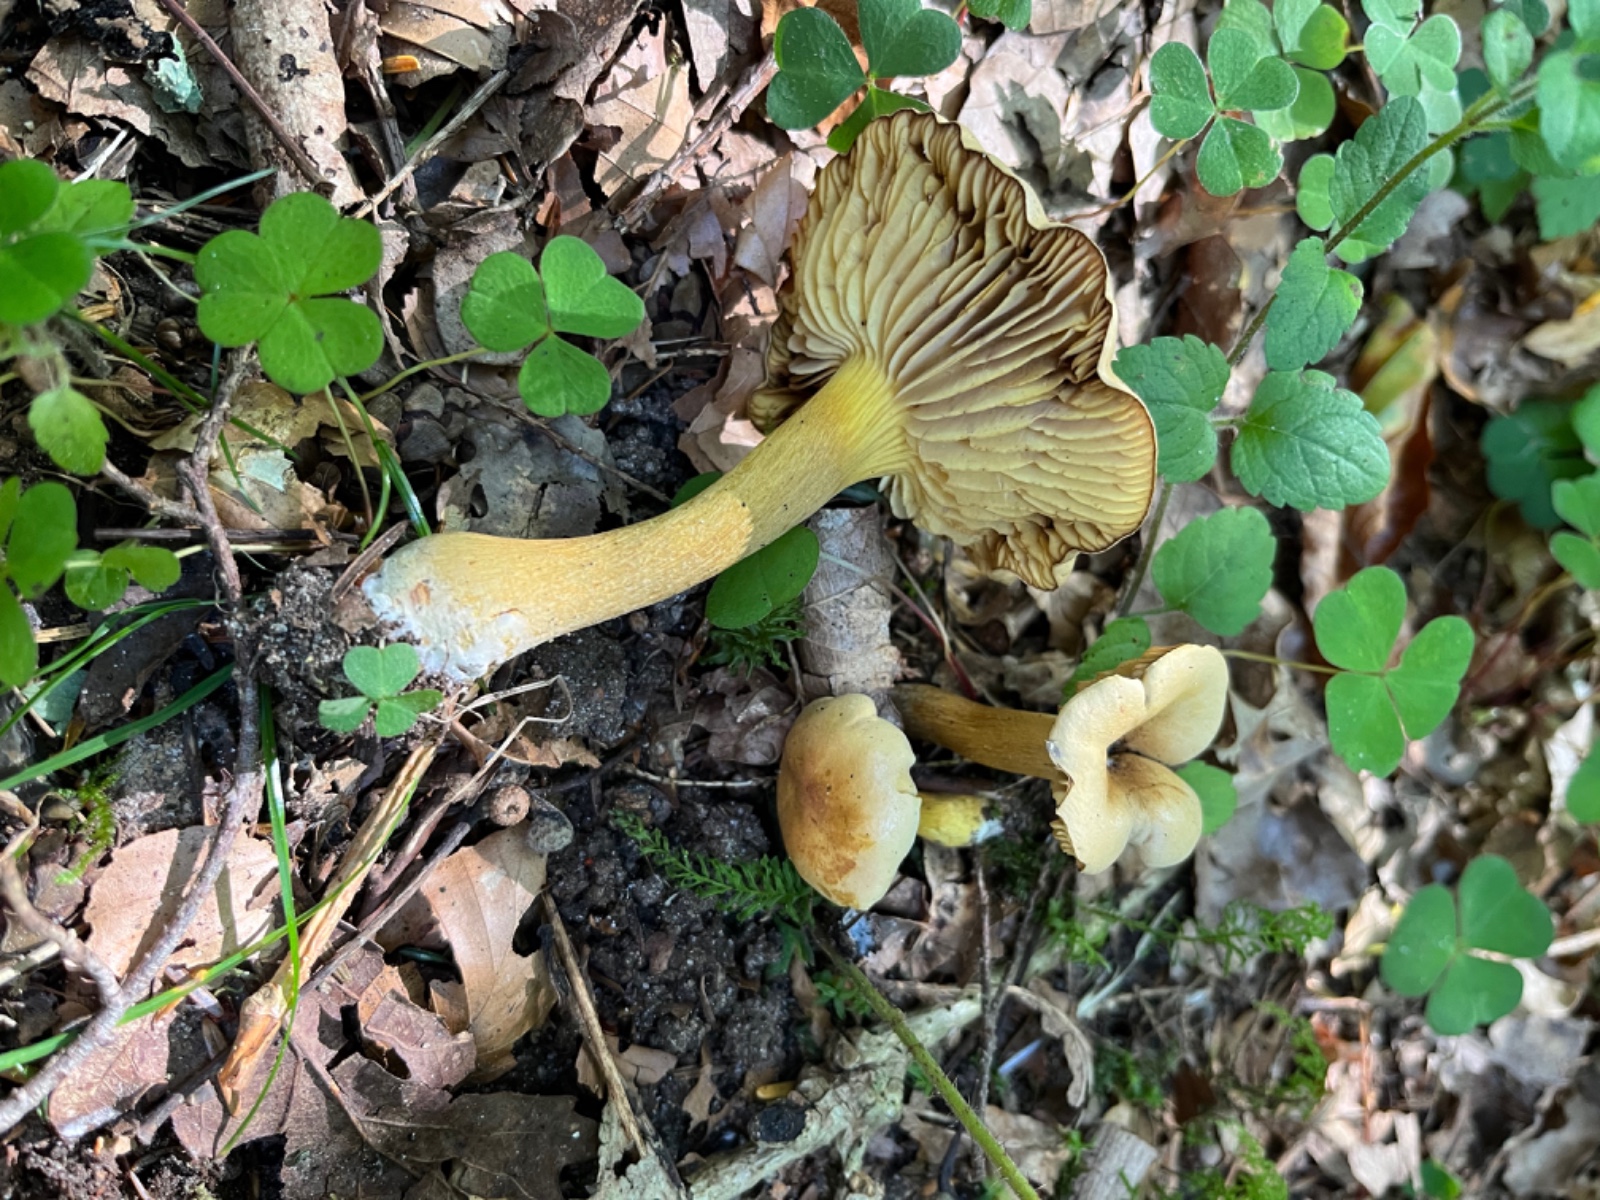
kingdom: Fungi
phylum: Basidiomycota
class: Agaricomycetes
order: Agaricales
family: Tricholomataceae
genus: Tricholoma
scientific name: Tricholoma sulphureum
